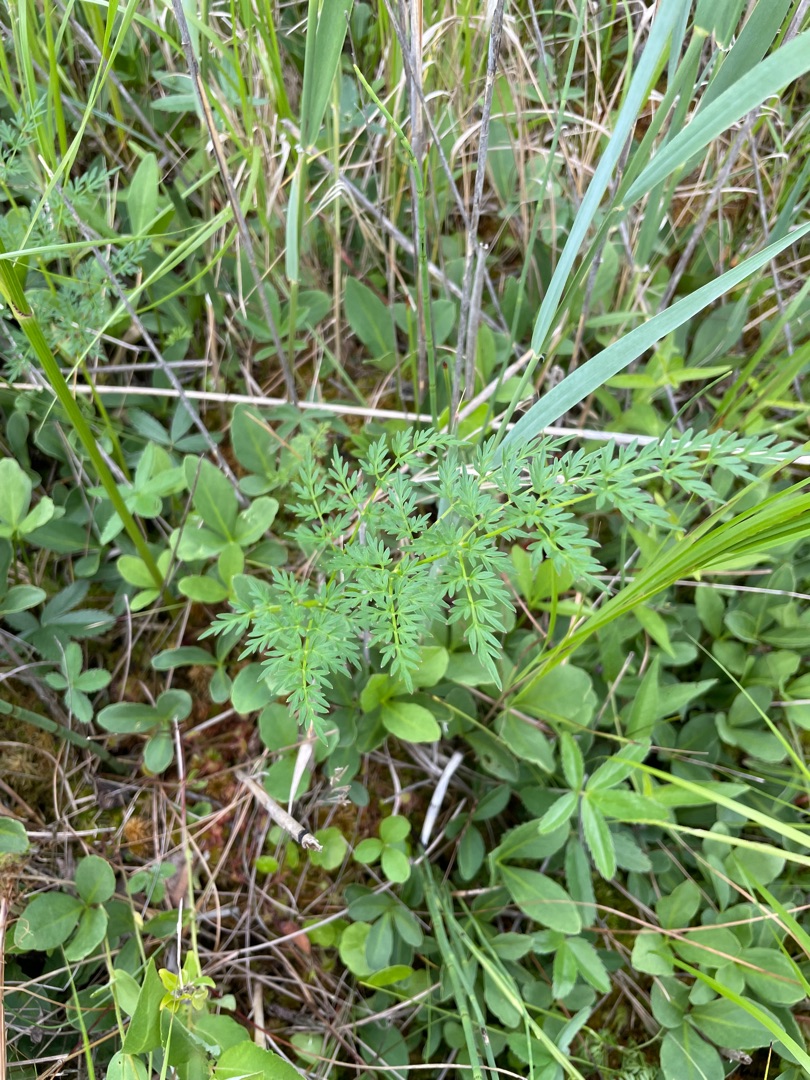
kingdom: Plantae
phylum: Tracheophyta
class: Magnoliopsida
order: Apiales
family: Apiaceae
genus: Thysselinum
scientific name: Thysselinum palustre
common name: Kær-svovlrod
